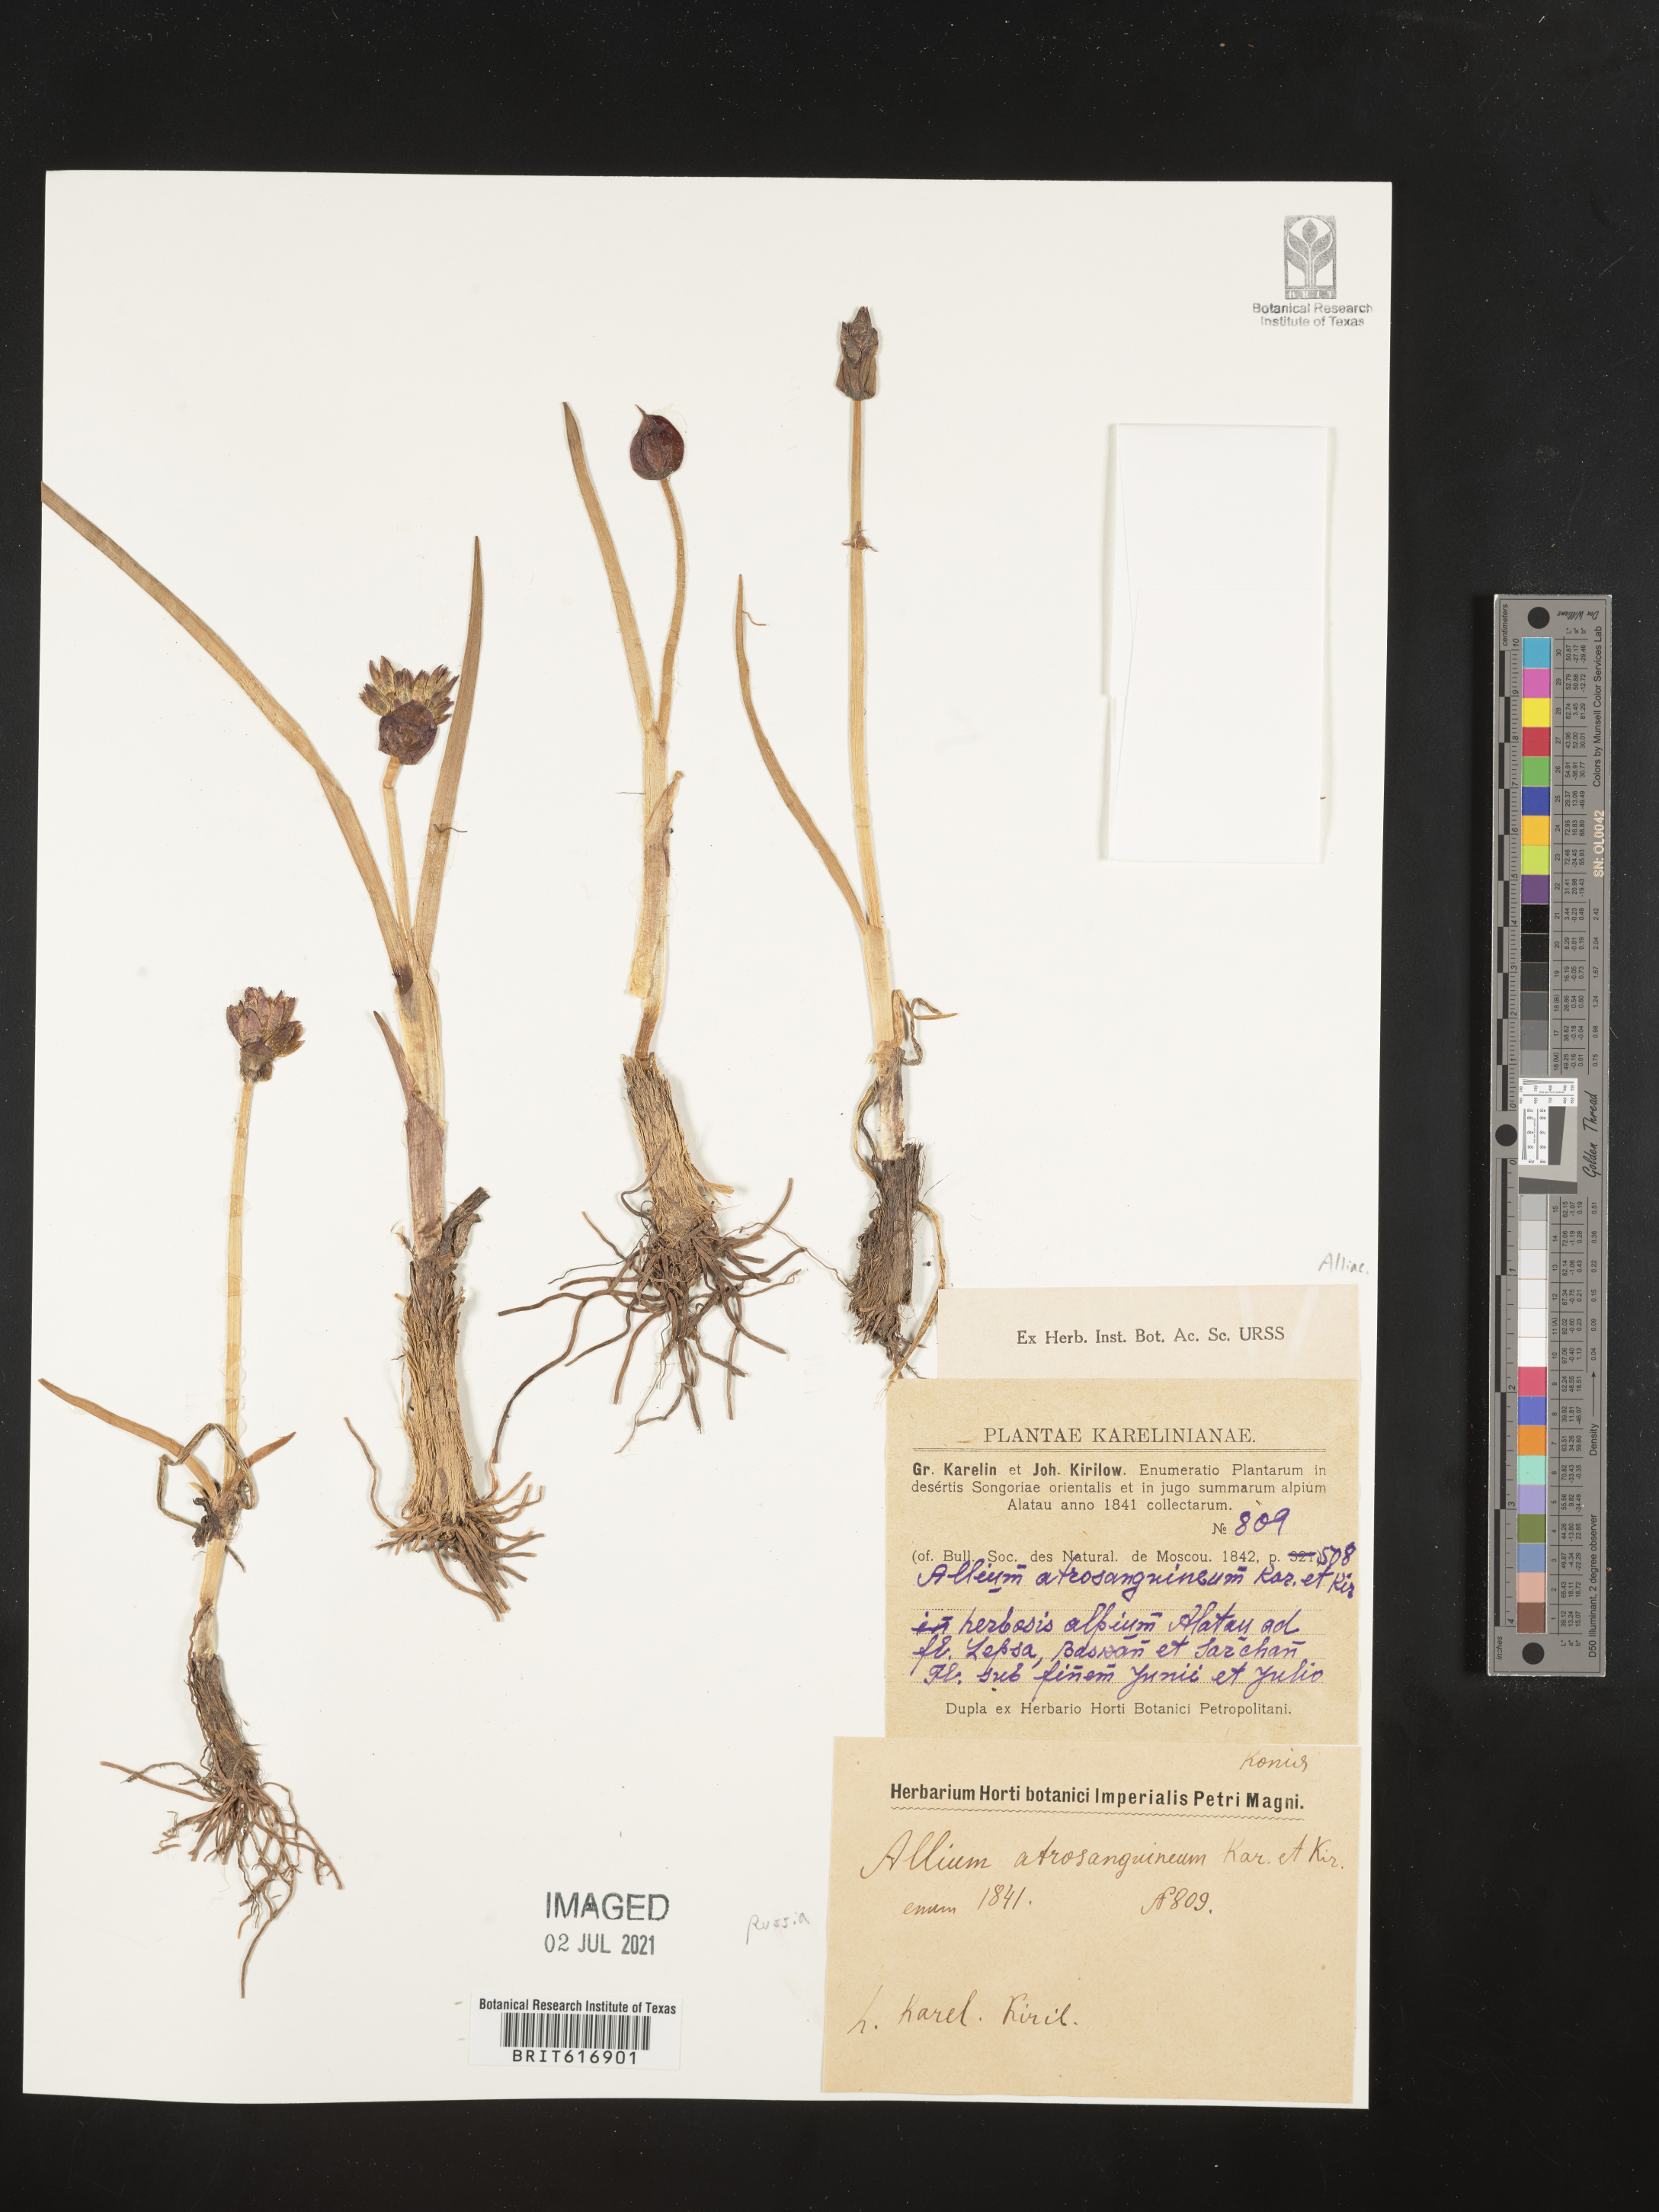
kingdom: Plantae
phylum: Tracheophyta
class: Liliopsida
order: Asparagales
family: Amaryllidaceae
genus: Allium
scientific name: Allium atrosanguineum
